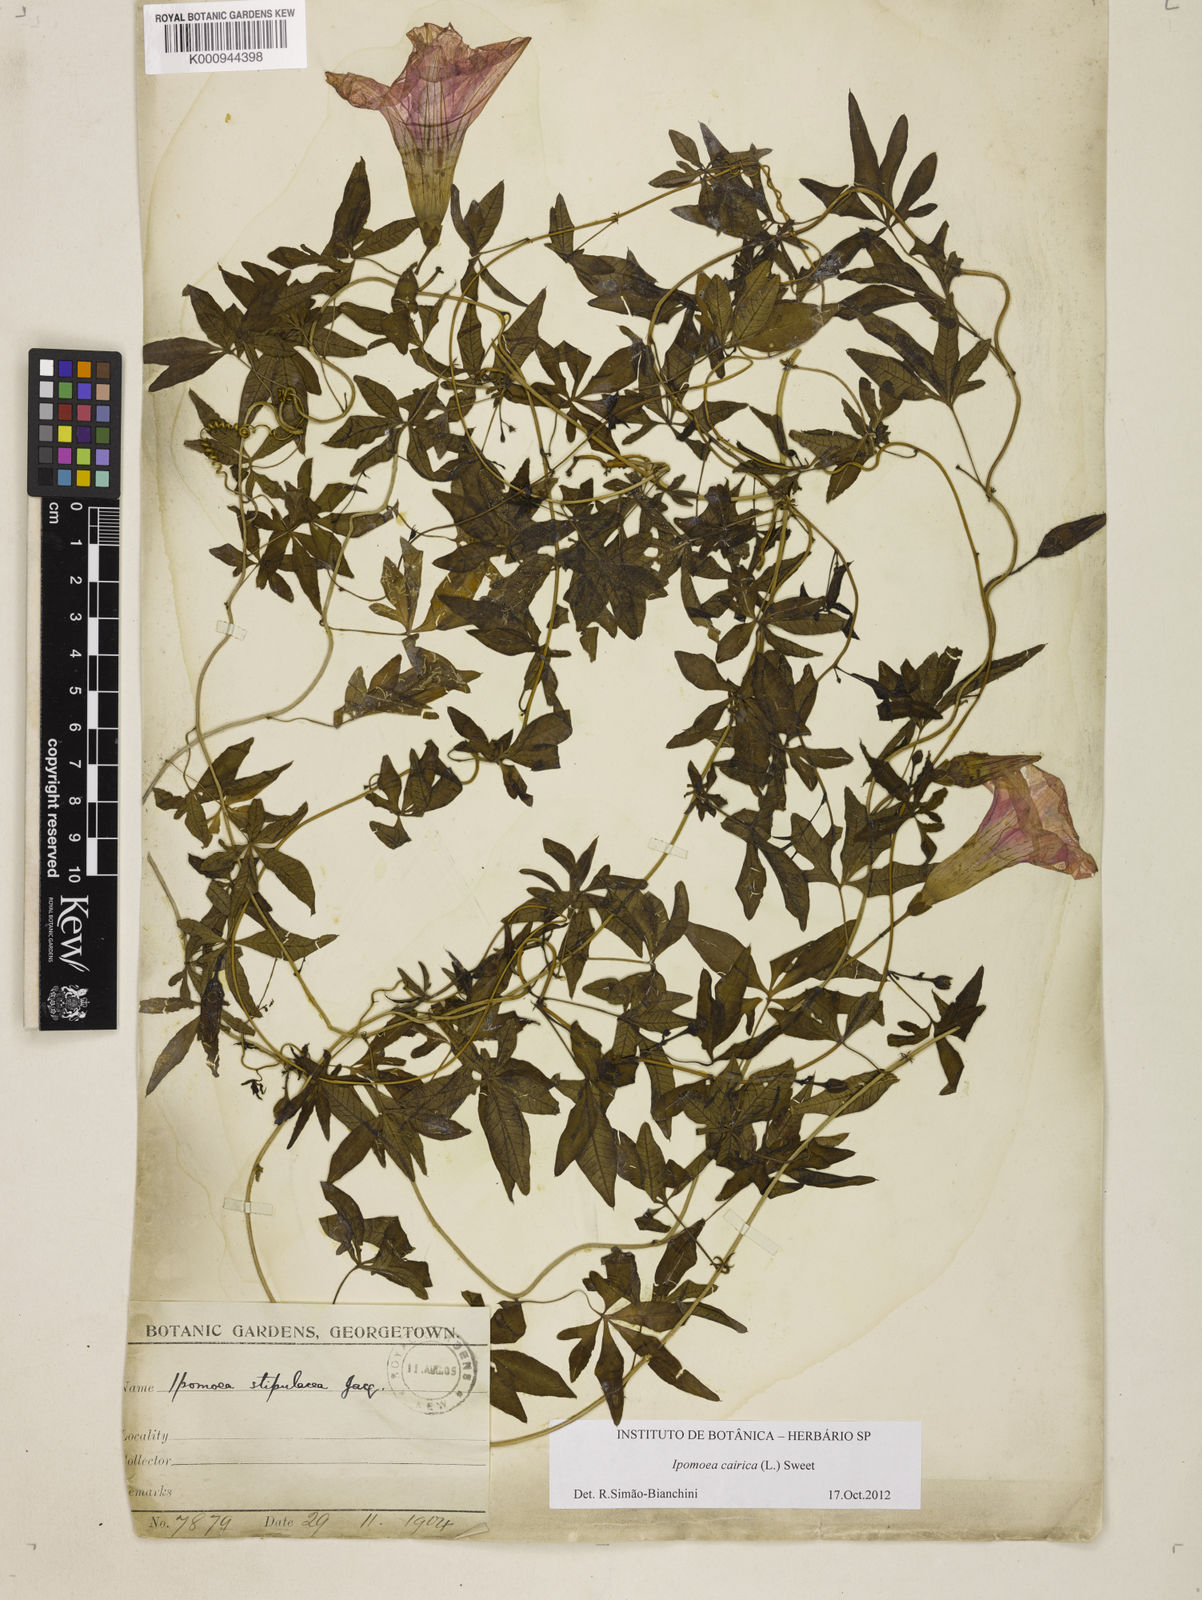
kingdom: Plantae
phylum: Tracheophyta
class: Magnoliopsida
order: Solanales
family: Convolvulaceae
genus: Ipomoea
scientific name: Ipomoea cairica
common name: Mile a minute vine
